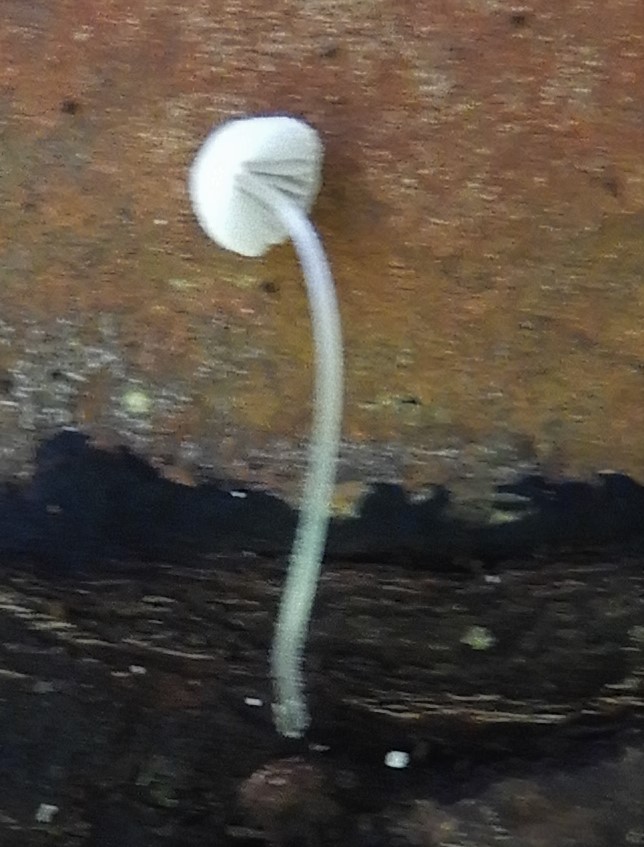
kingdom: Fungi
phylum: Basidiomycota
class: Agaricomycetes
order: Agaricales
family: Mycenaceae
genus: Mycena
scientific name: Mycena tenerrima
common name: pudret huesvamp
